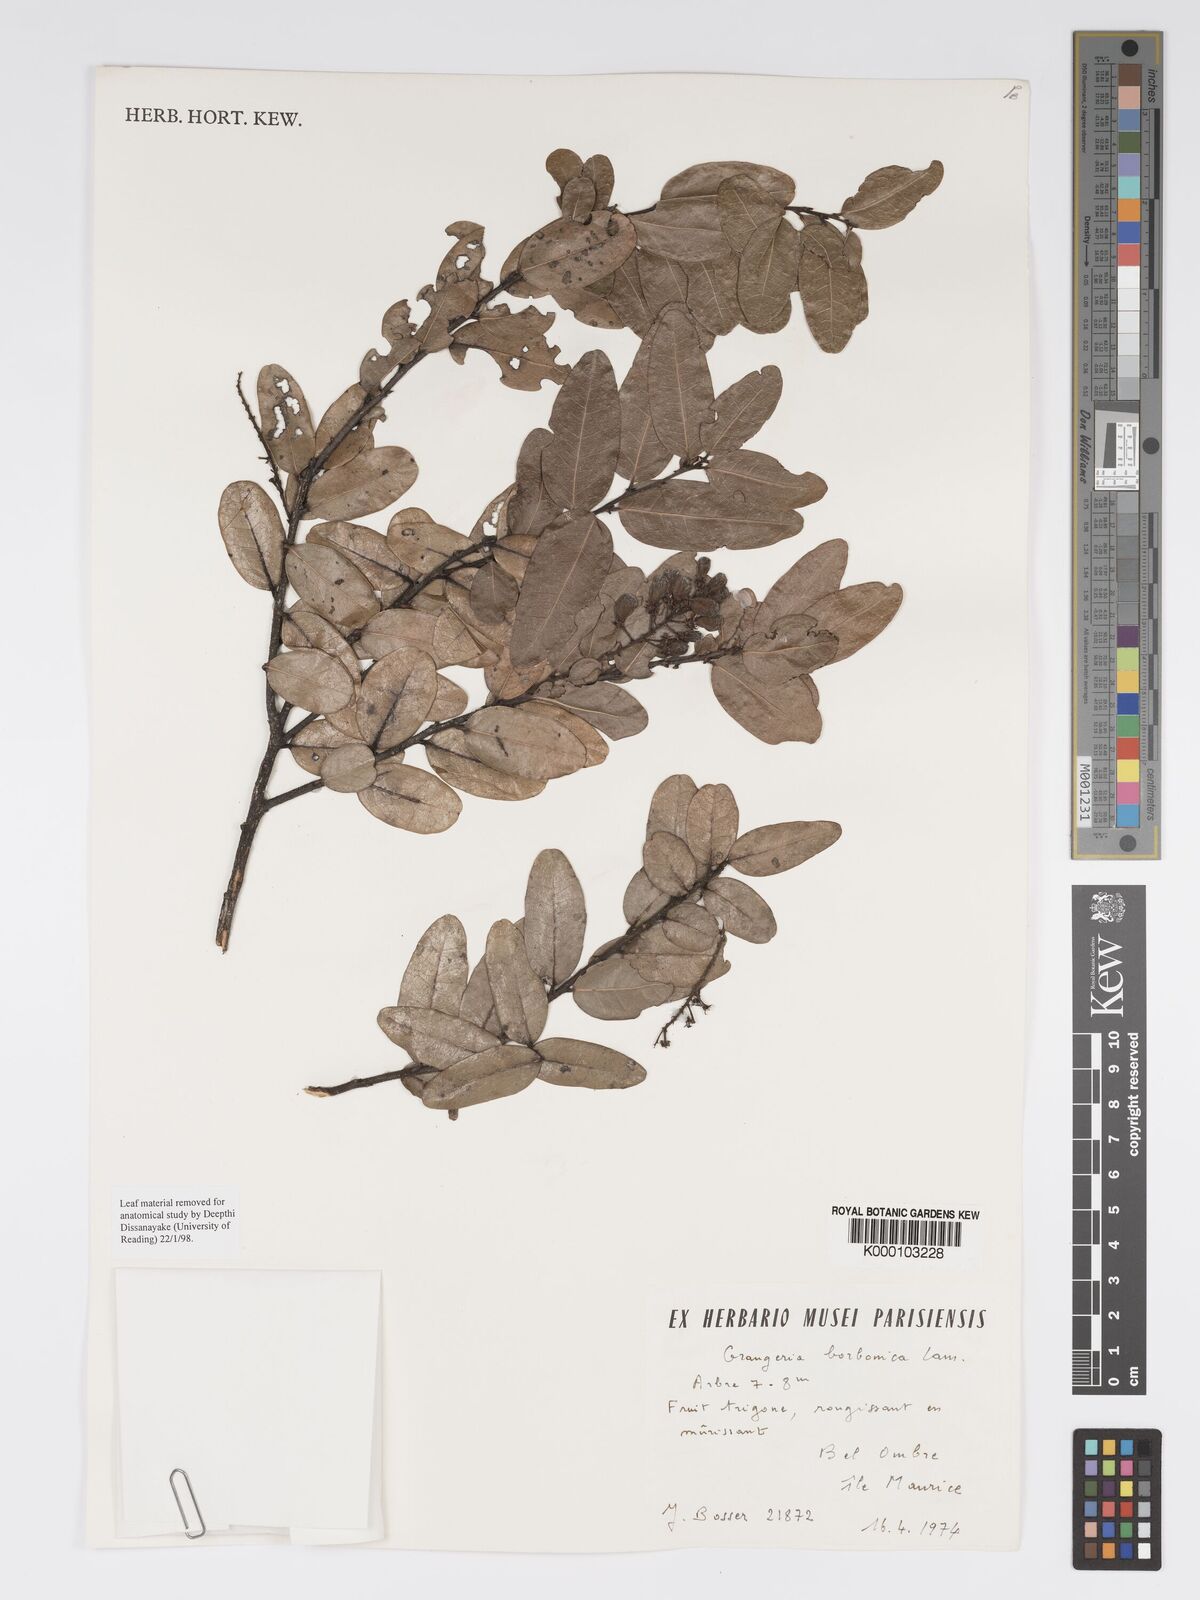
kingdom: Plantae
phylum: Tracheophyta
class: Magnoliopsida
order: Malpighiales
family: Chrysobalanaceae
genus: Grangeria
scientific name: Grangeria borbonica
